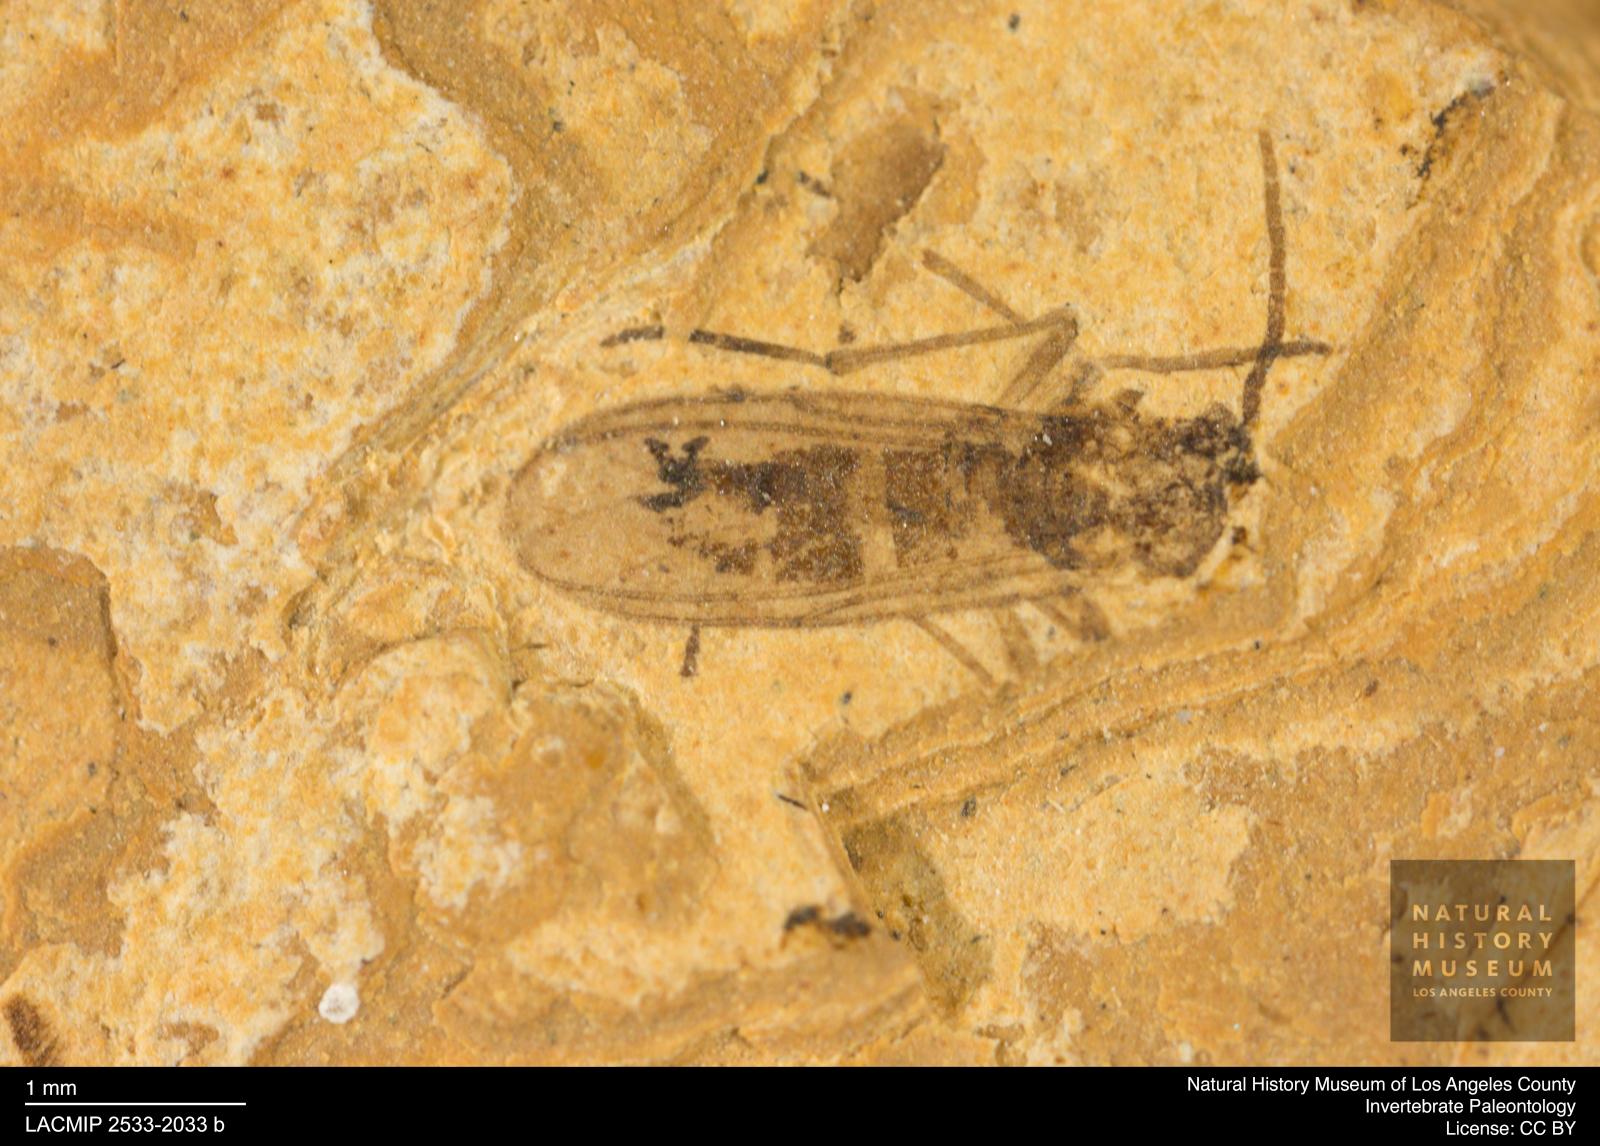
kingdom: Animalia
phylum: Arthropoda
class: Insecta
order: Diptera
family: Sciaridae
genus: Sciara
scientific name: Sciara
